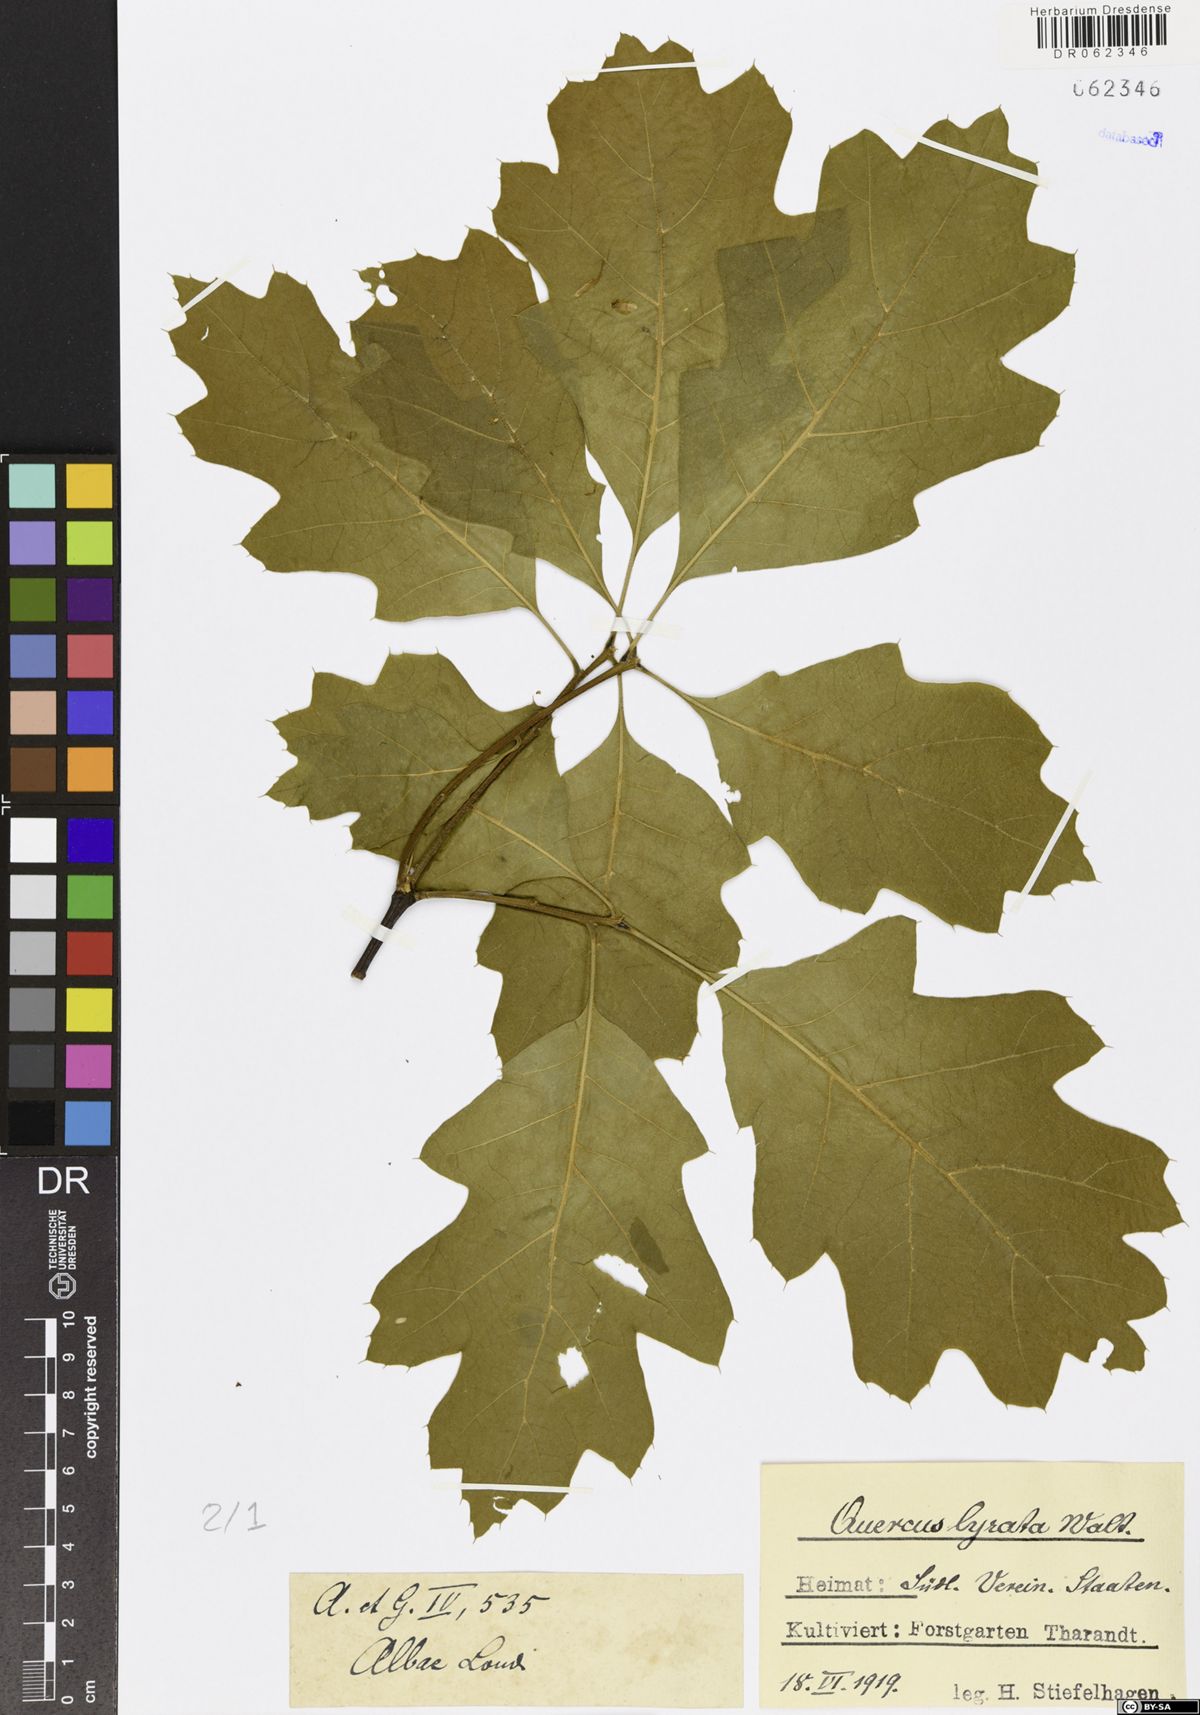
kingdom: Plantae
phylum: Tracheophyta
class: Magnoliopsida
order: Fagales
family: Fagaceae
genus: Quercus
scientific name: Quercus lyrata
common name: Overcup oak
